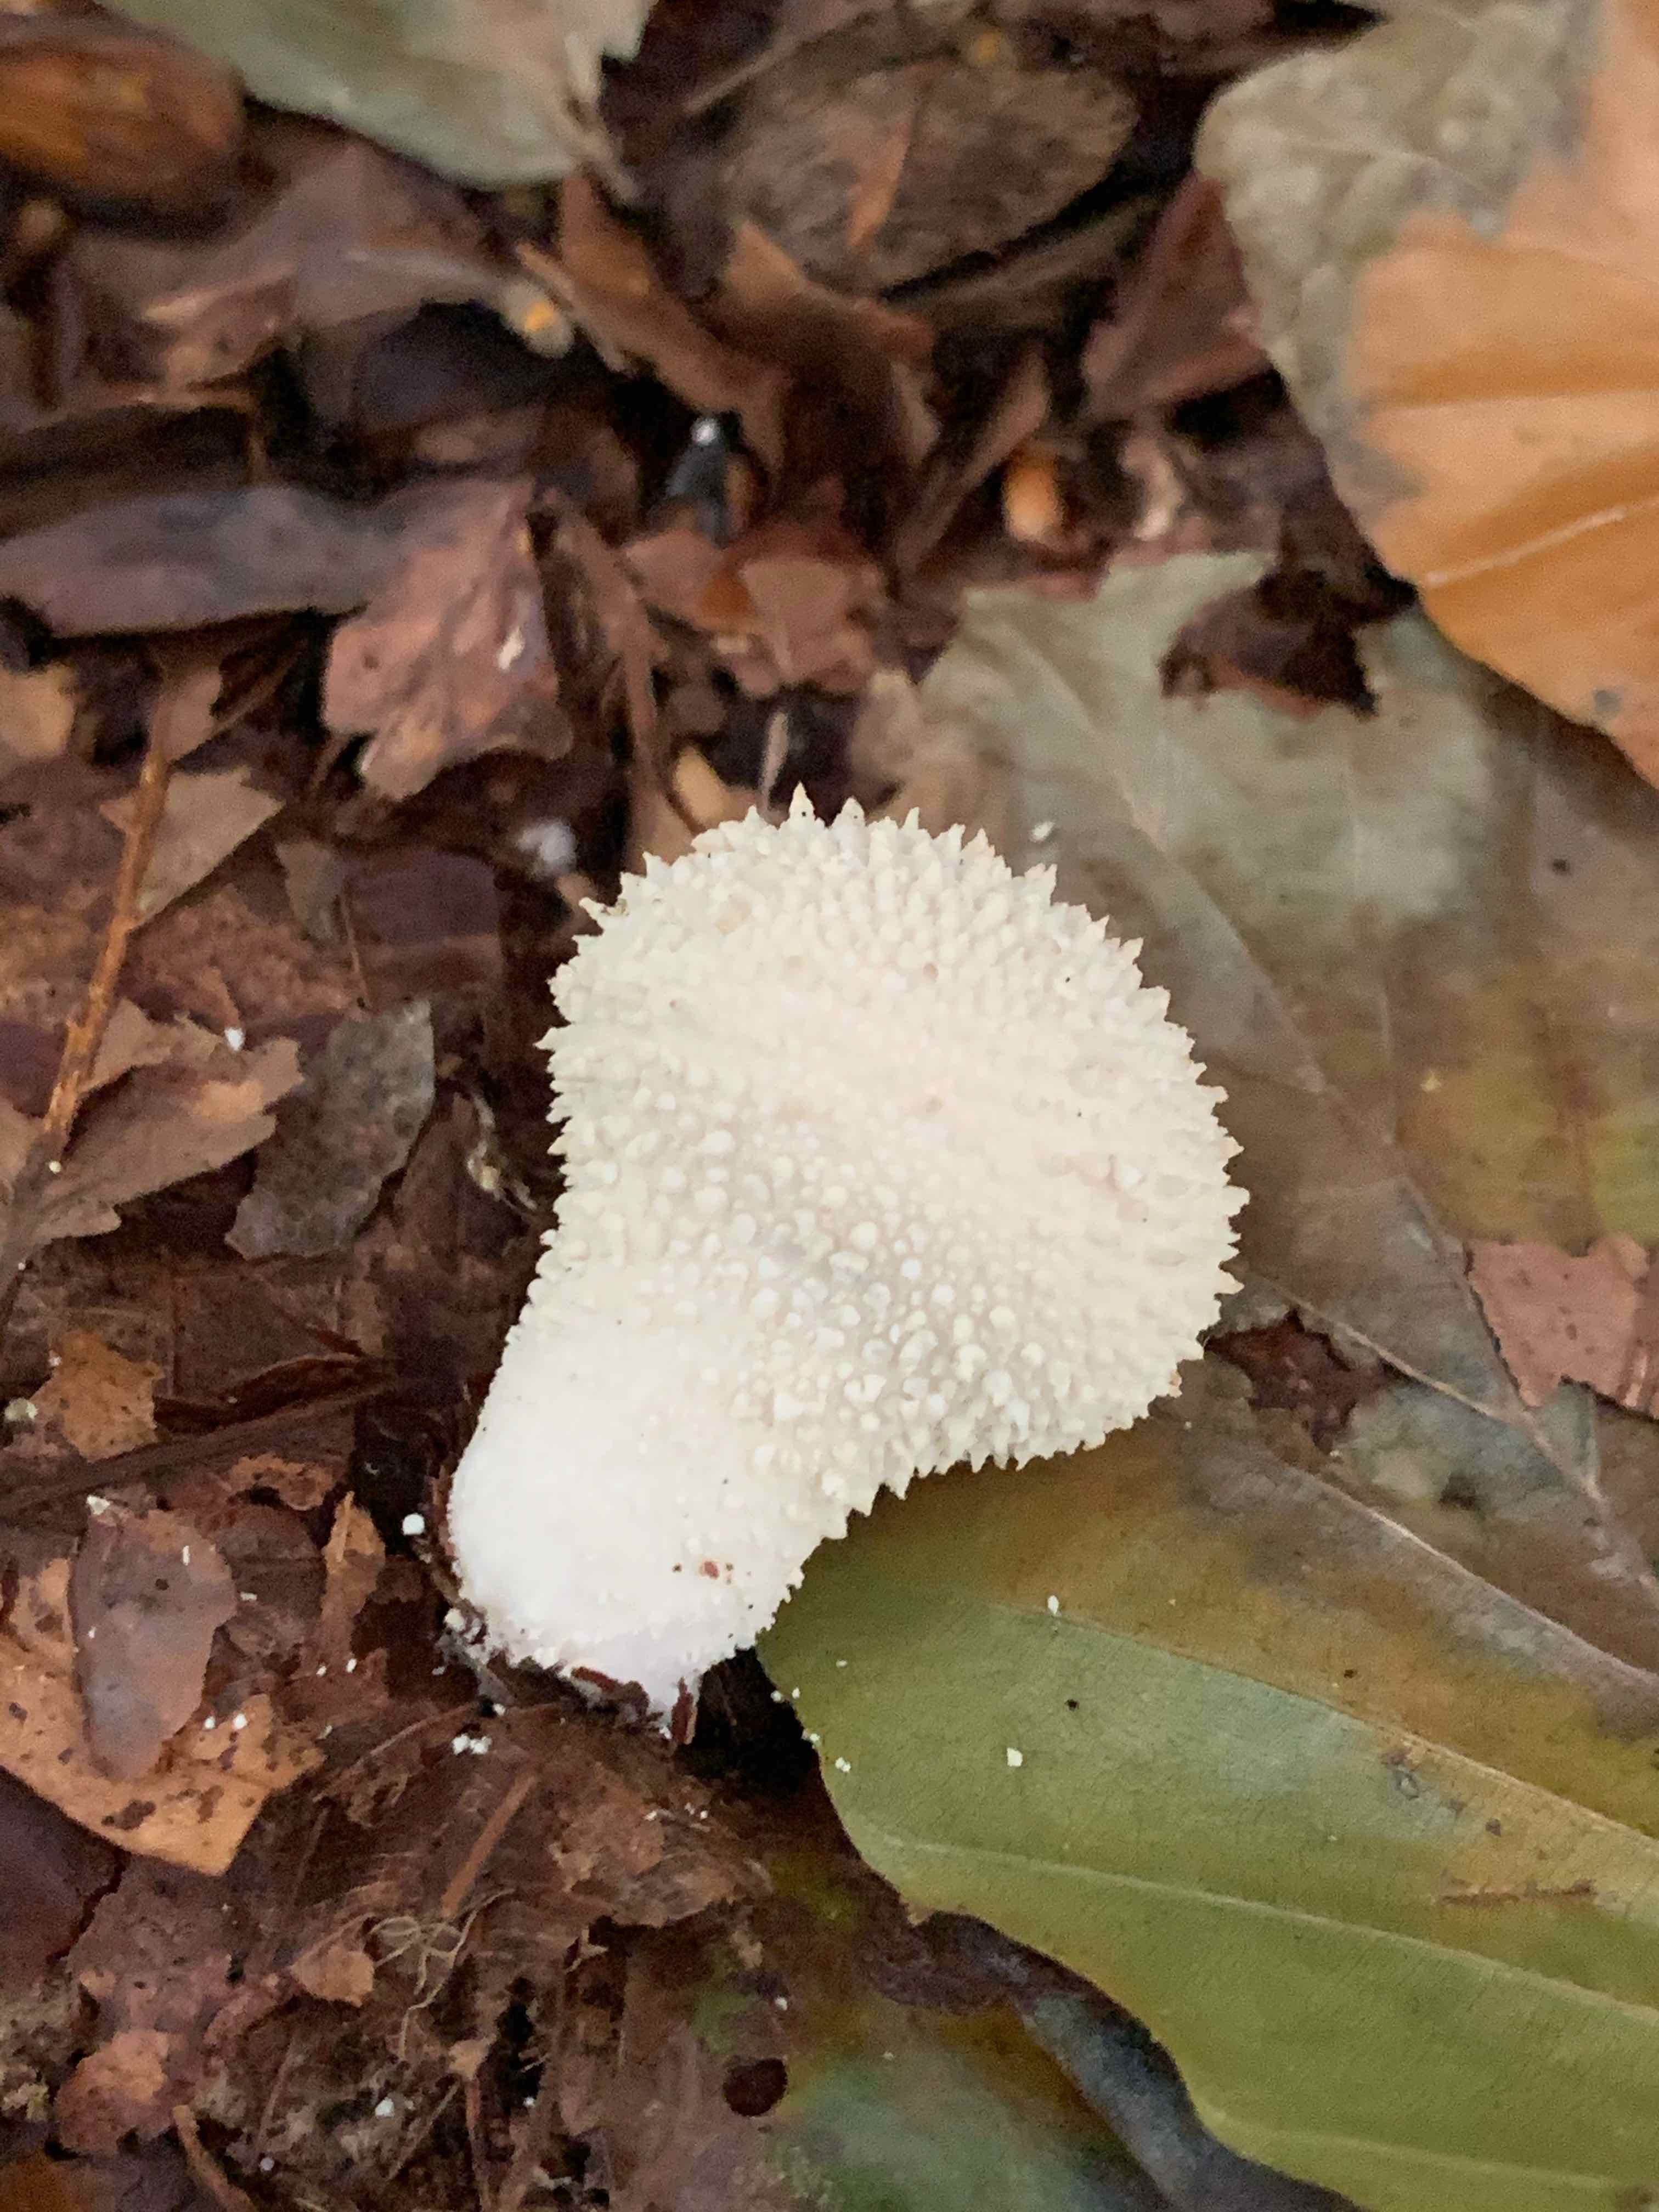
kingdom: Fungi
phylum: Basidiomycota
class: Agaricomycetes
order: Agaricales
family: Lycoperdaceae
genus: Lycoperdon
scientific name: Lycoperdon perlatum
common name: krystal-støvbold
